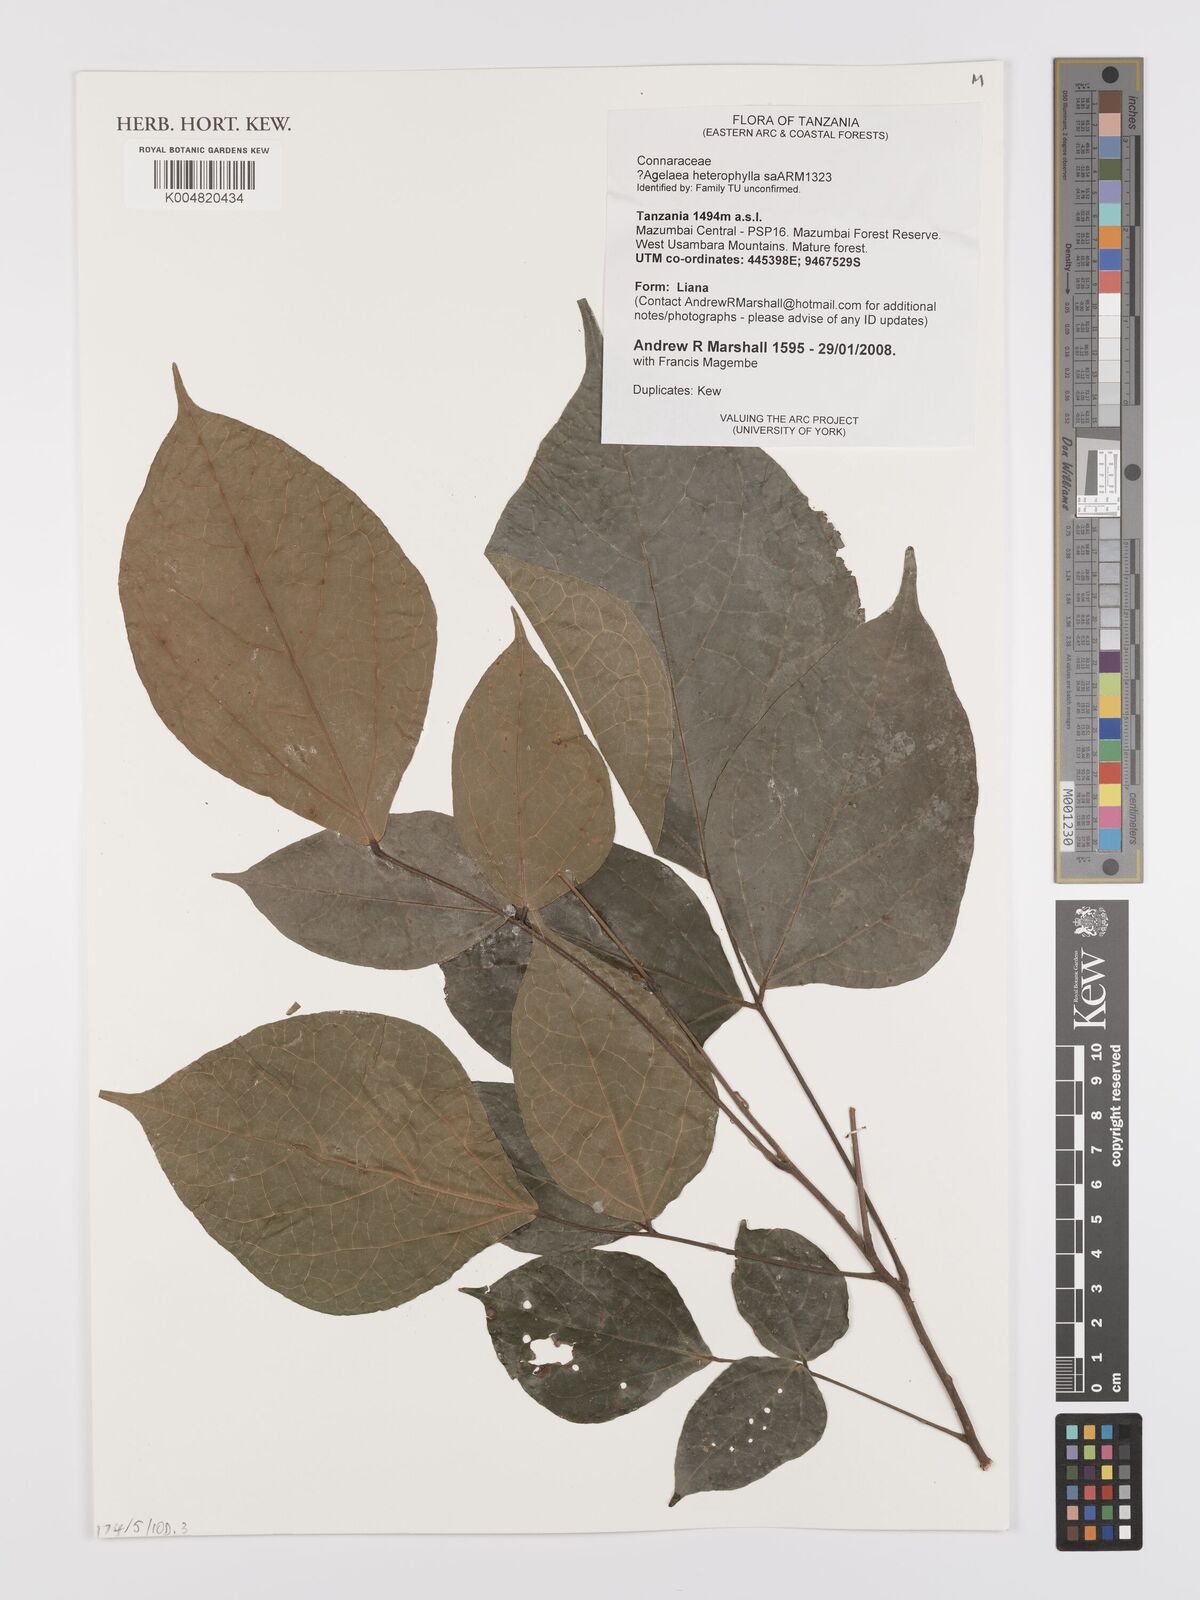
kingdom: Plantae
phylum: Tracheophyta
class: Magnoliopsida
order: Oxalidales
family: Connaraceae
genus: Agelaea
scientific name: Agelaea
